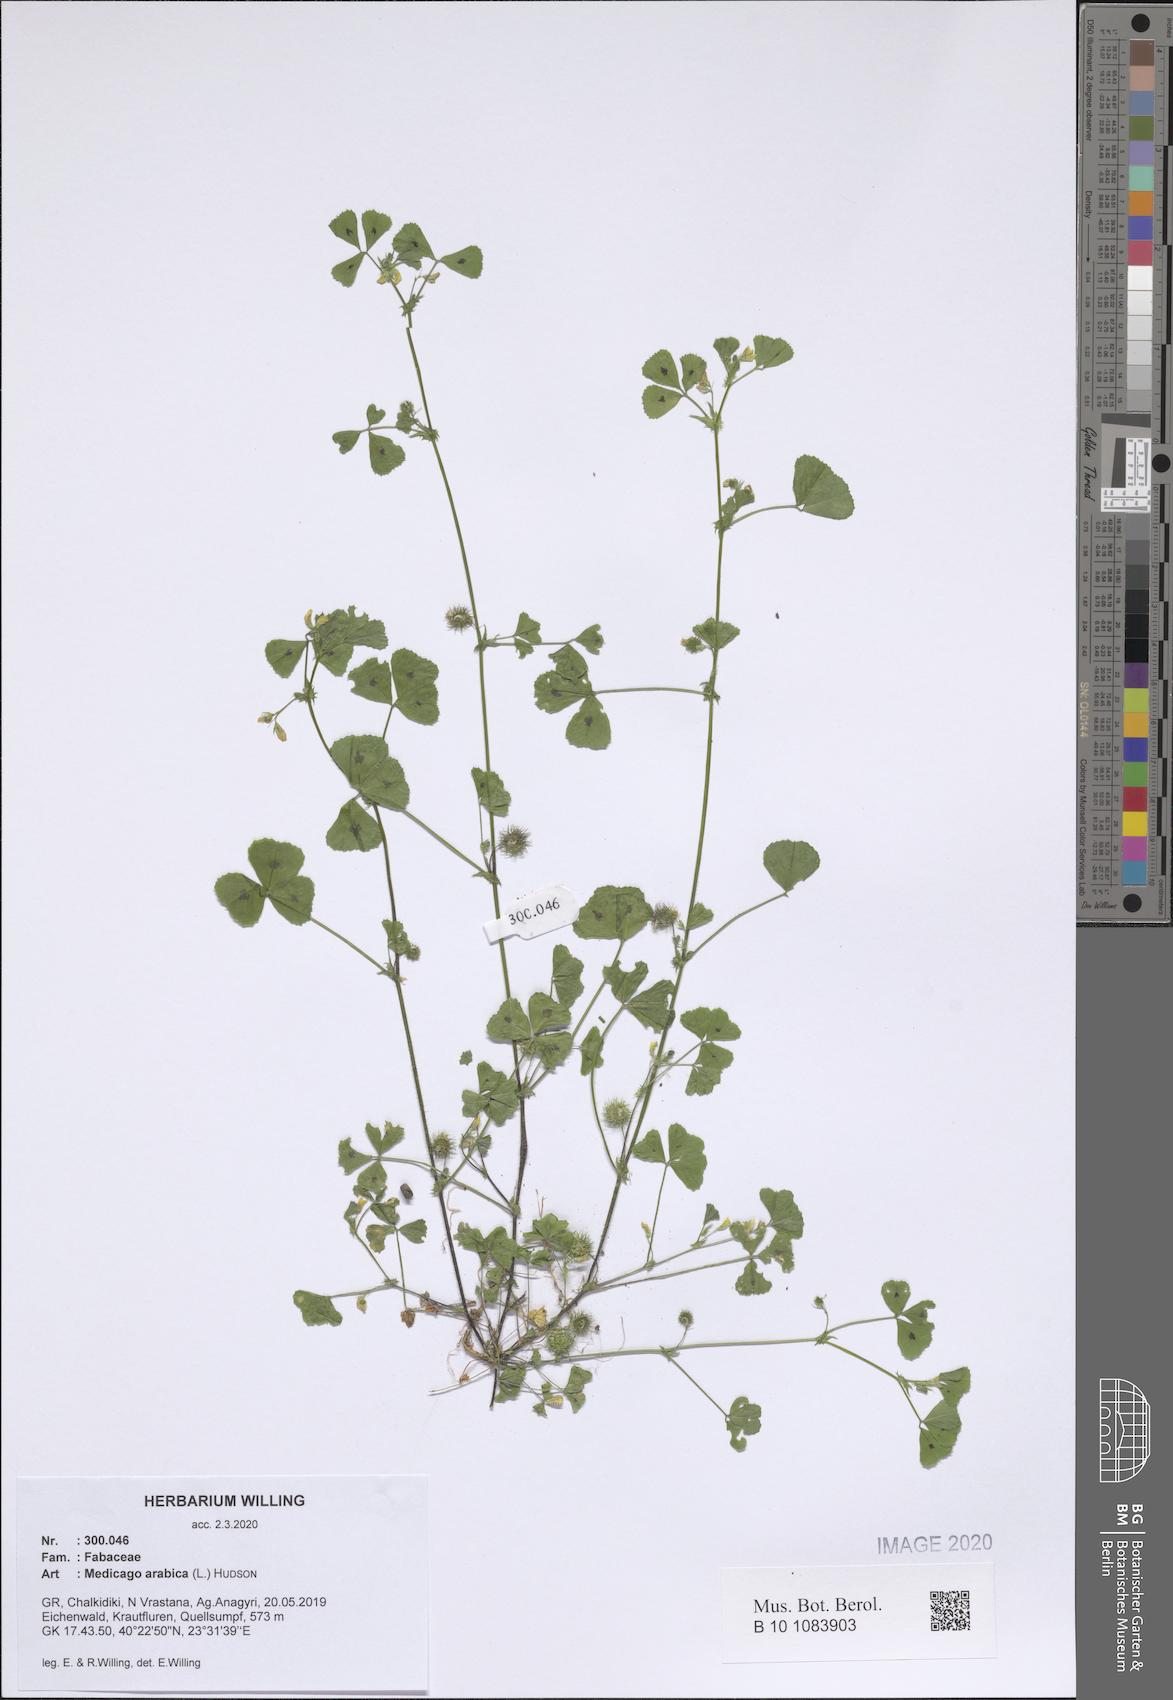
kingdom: Plantae
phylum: Tracheophyta
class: Magnoliopsida
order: Fabales
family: Fabaceae
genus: Medicago
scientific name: Medicago arabica
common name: Spotted medick
